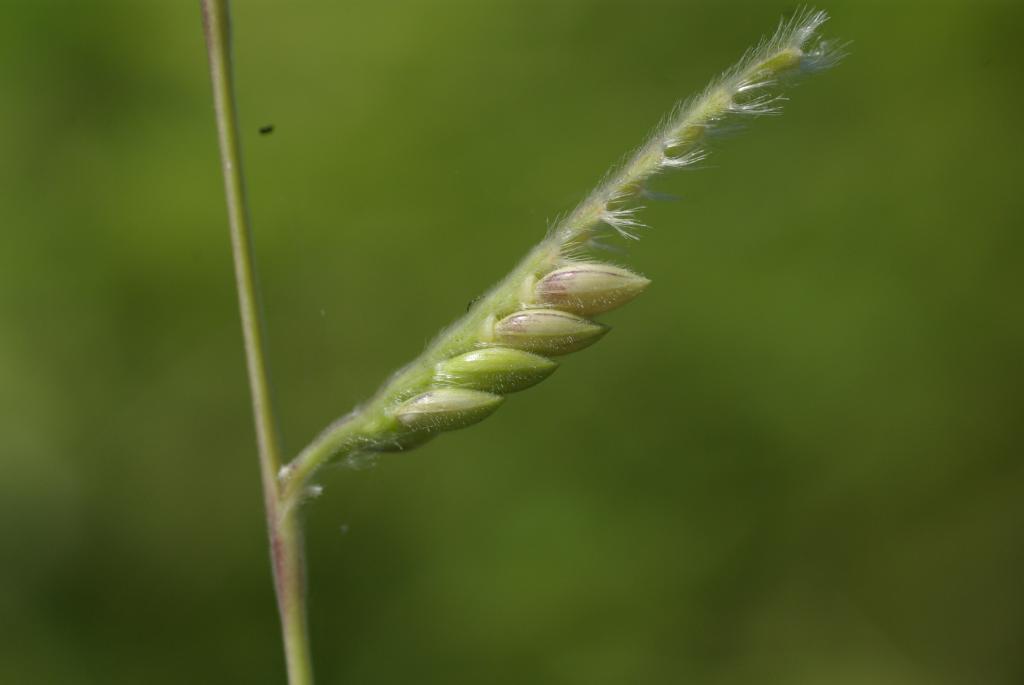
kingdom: Plantae
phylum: Tracheophyta
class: Liliopsida
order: Poales
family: Poaceae
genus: Eriochloa
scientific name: Eriochloa villosa
